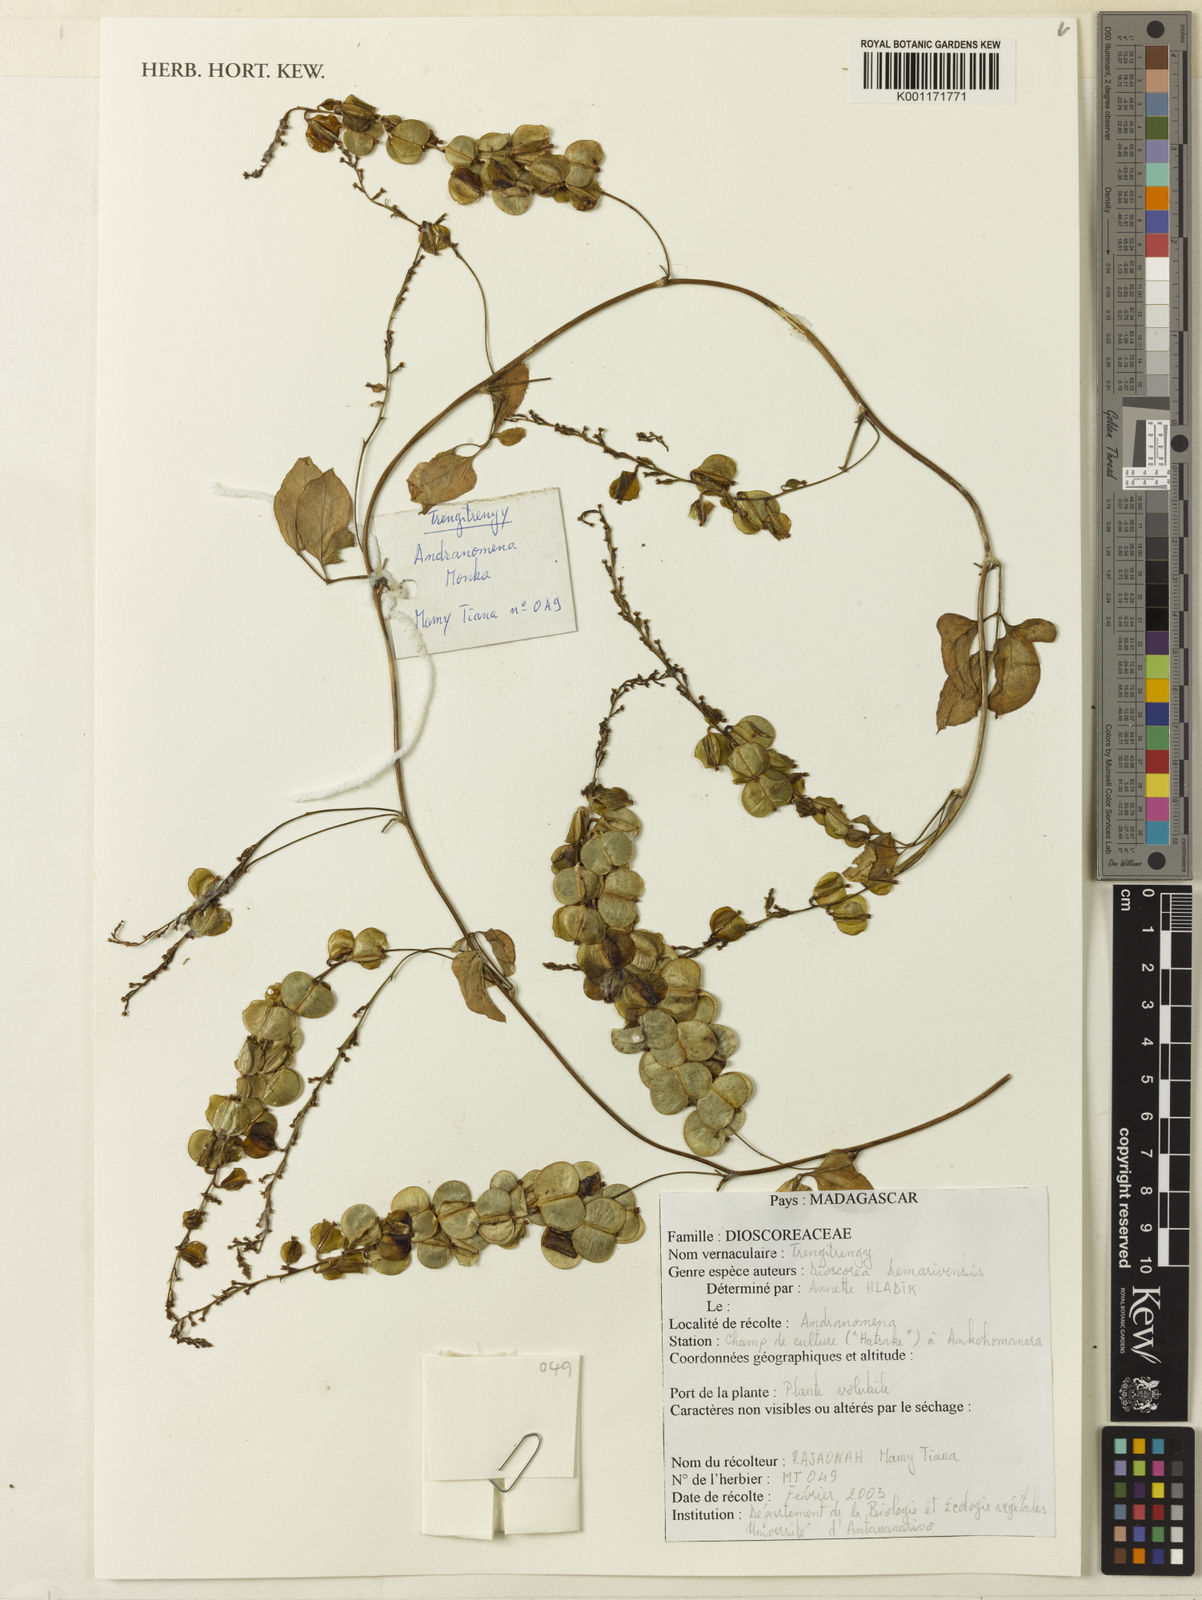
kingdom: Plantae
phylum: Tracheophyta
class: Liliopsida
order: Dioscoreales
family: Dioscoreaceae
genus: Dioscorea
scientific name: Dioscorea bemarivensis
